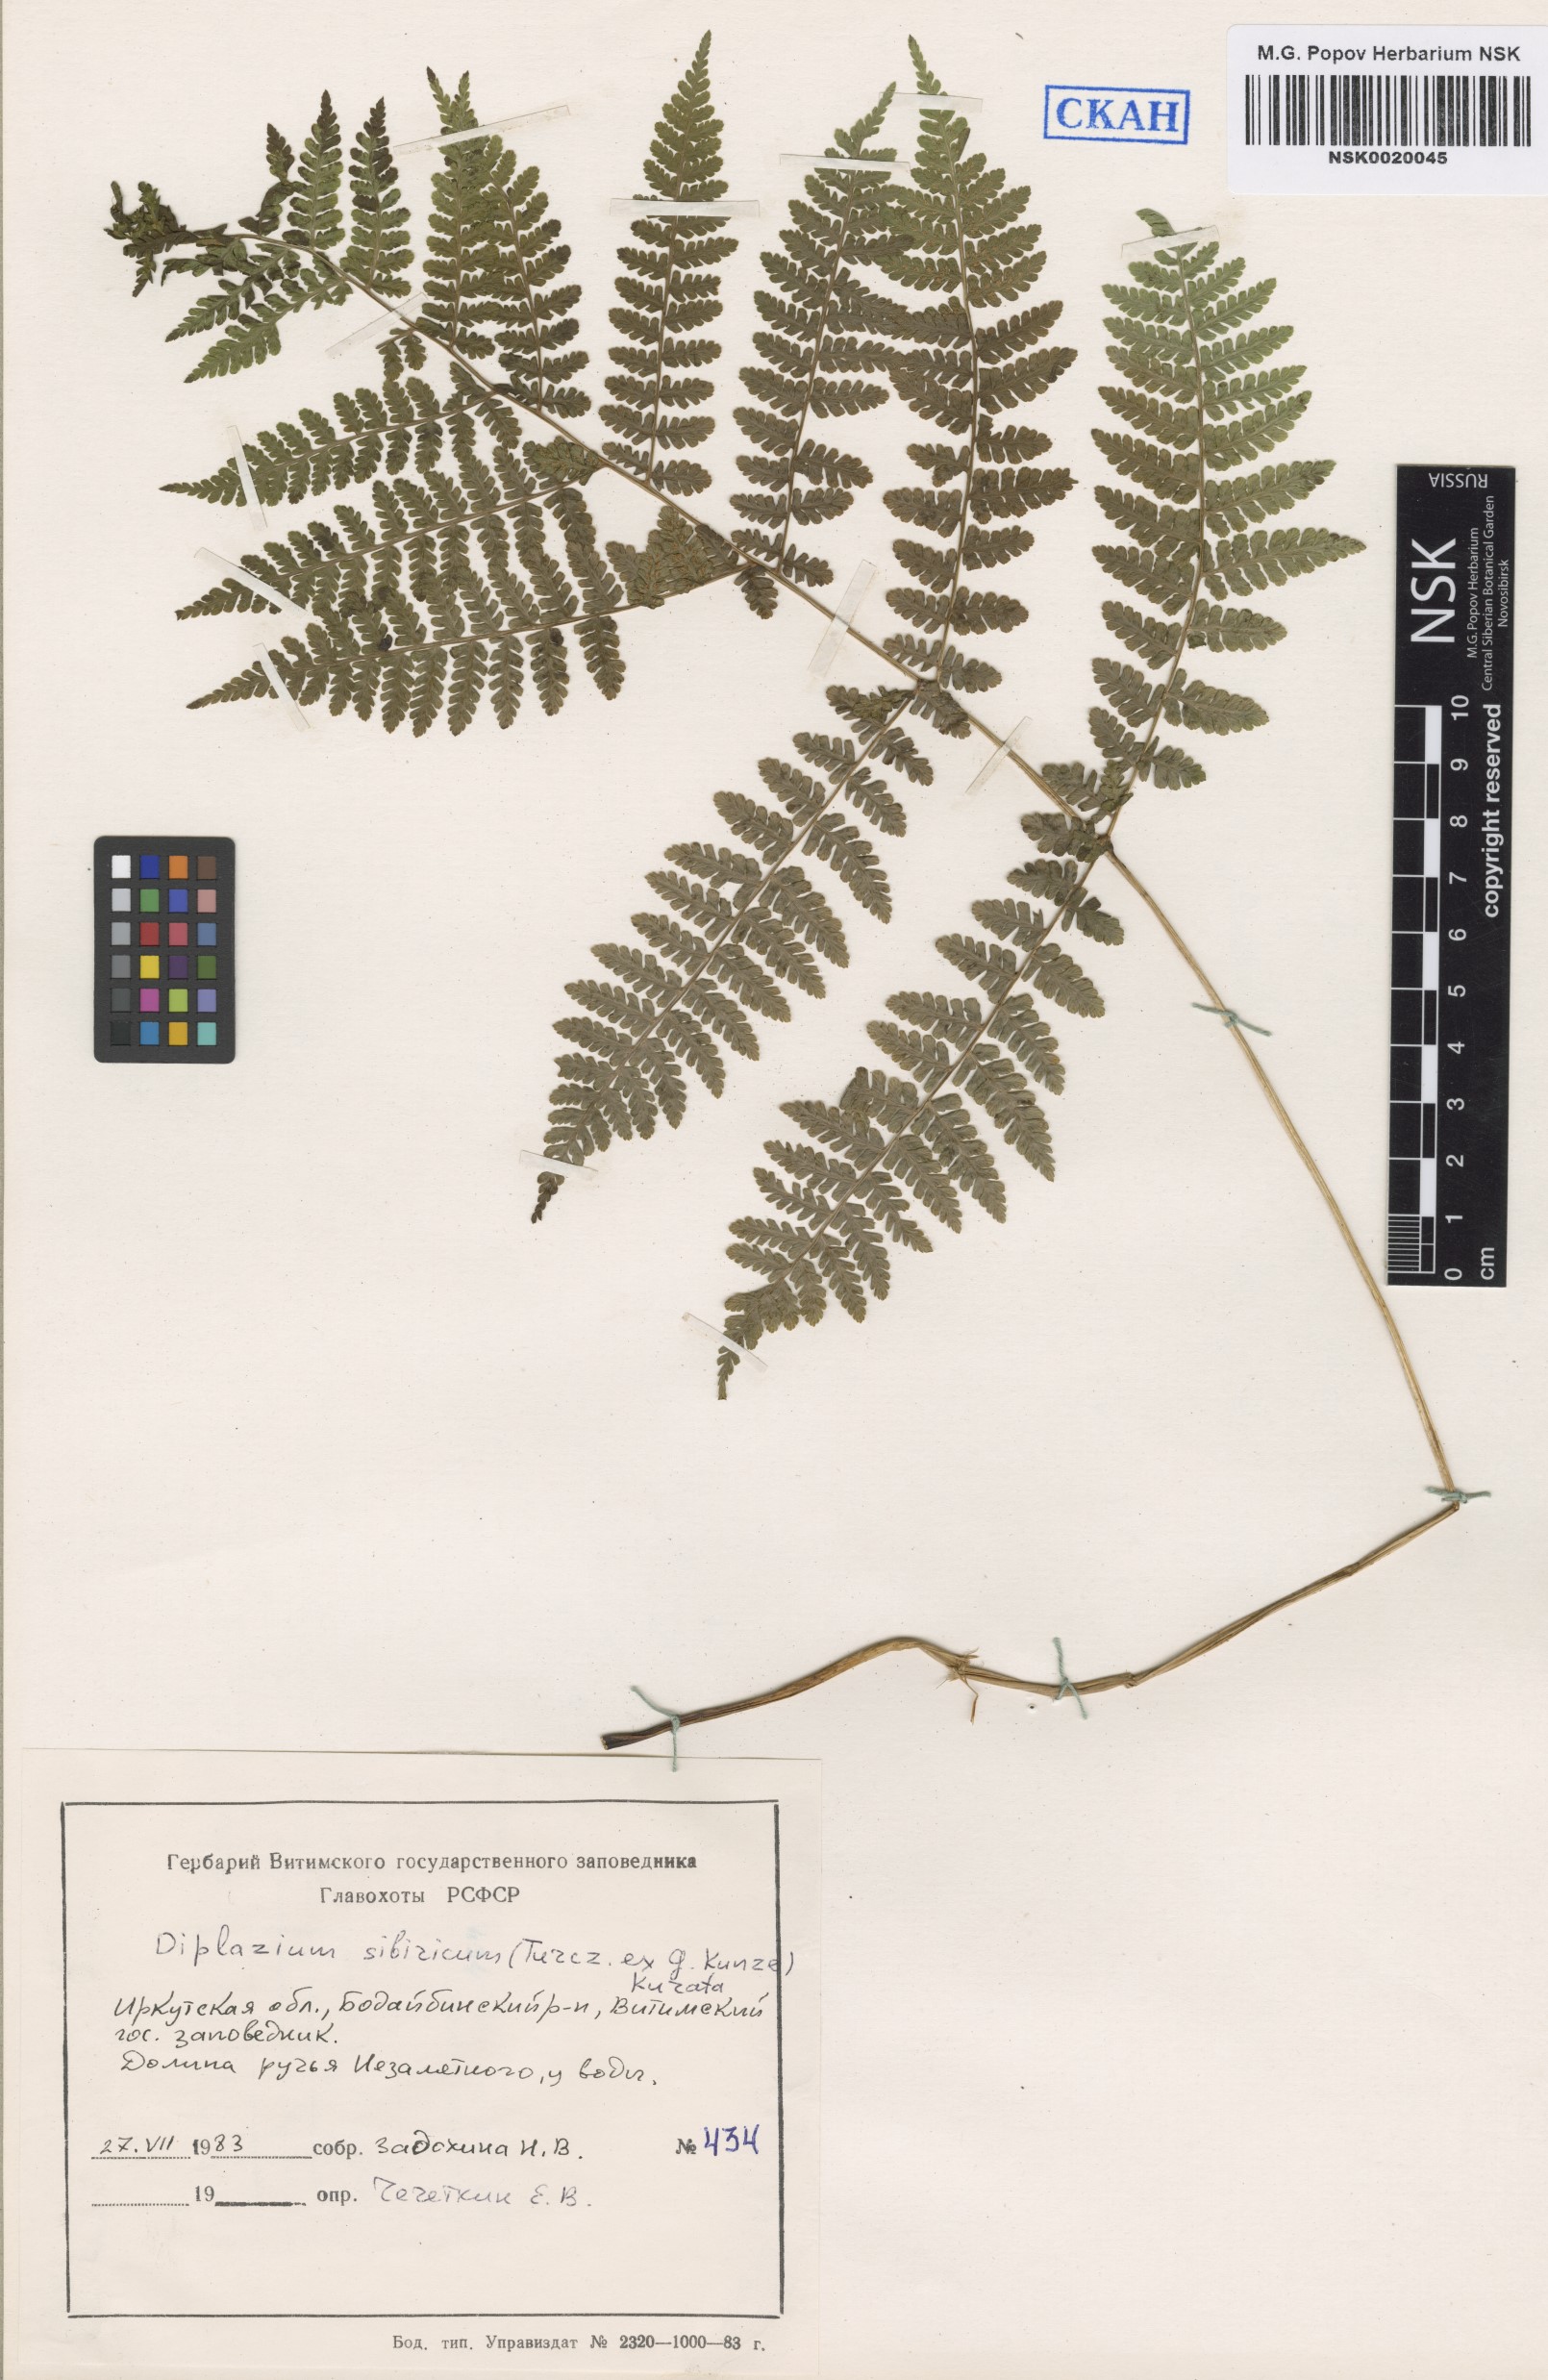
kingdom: Plantae
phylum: Tracheophyta
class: Polypodiopsida
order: Polypodiales
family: Athyriaceae
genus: Diplazium
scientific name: Diplazium sibiricum
